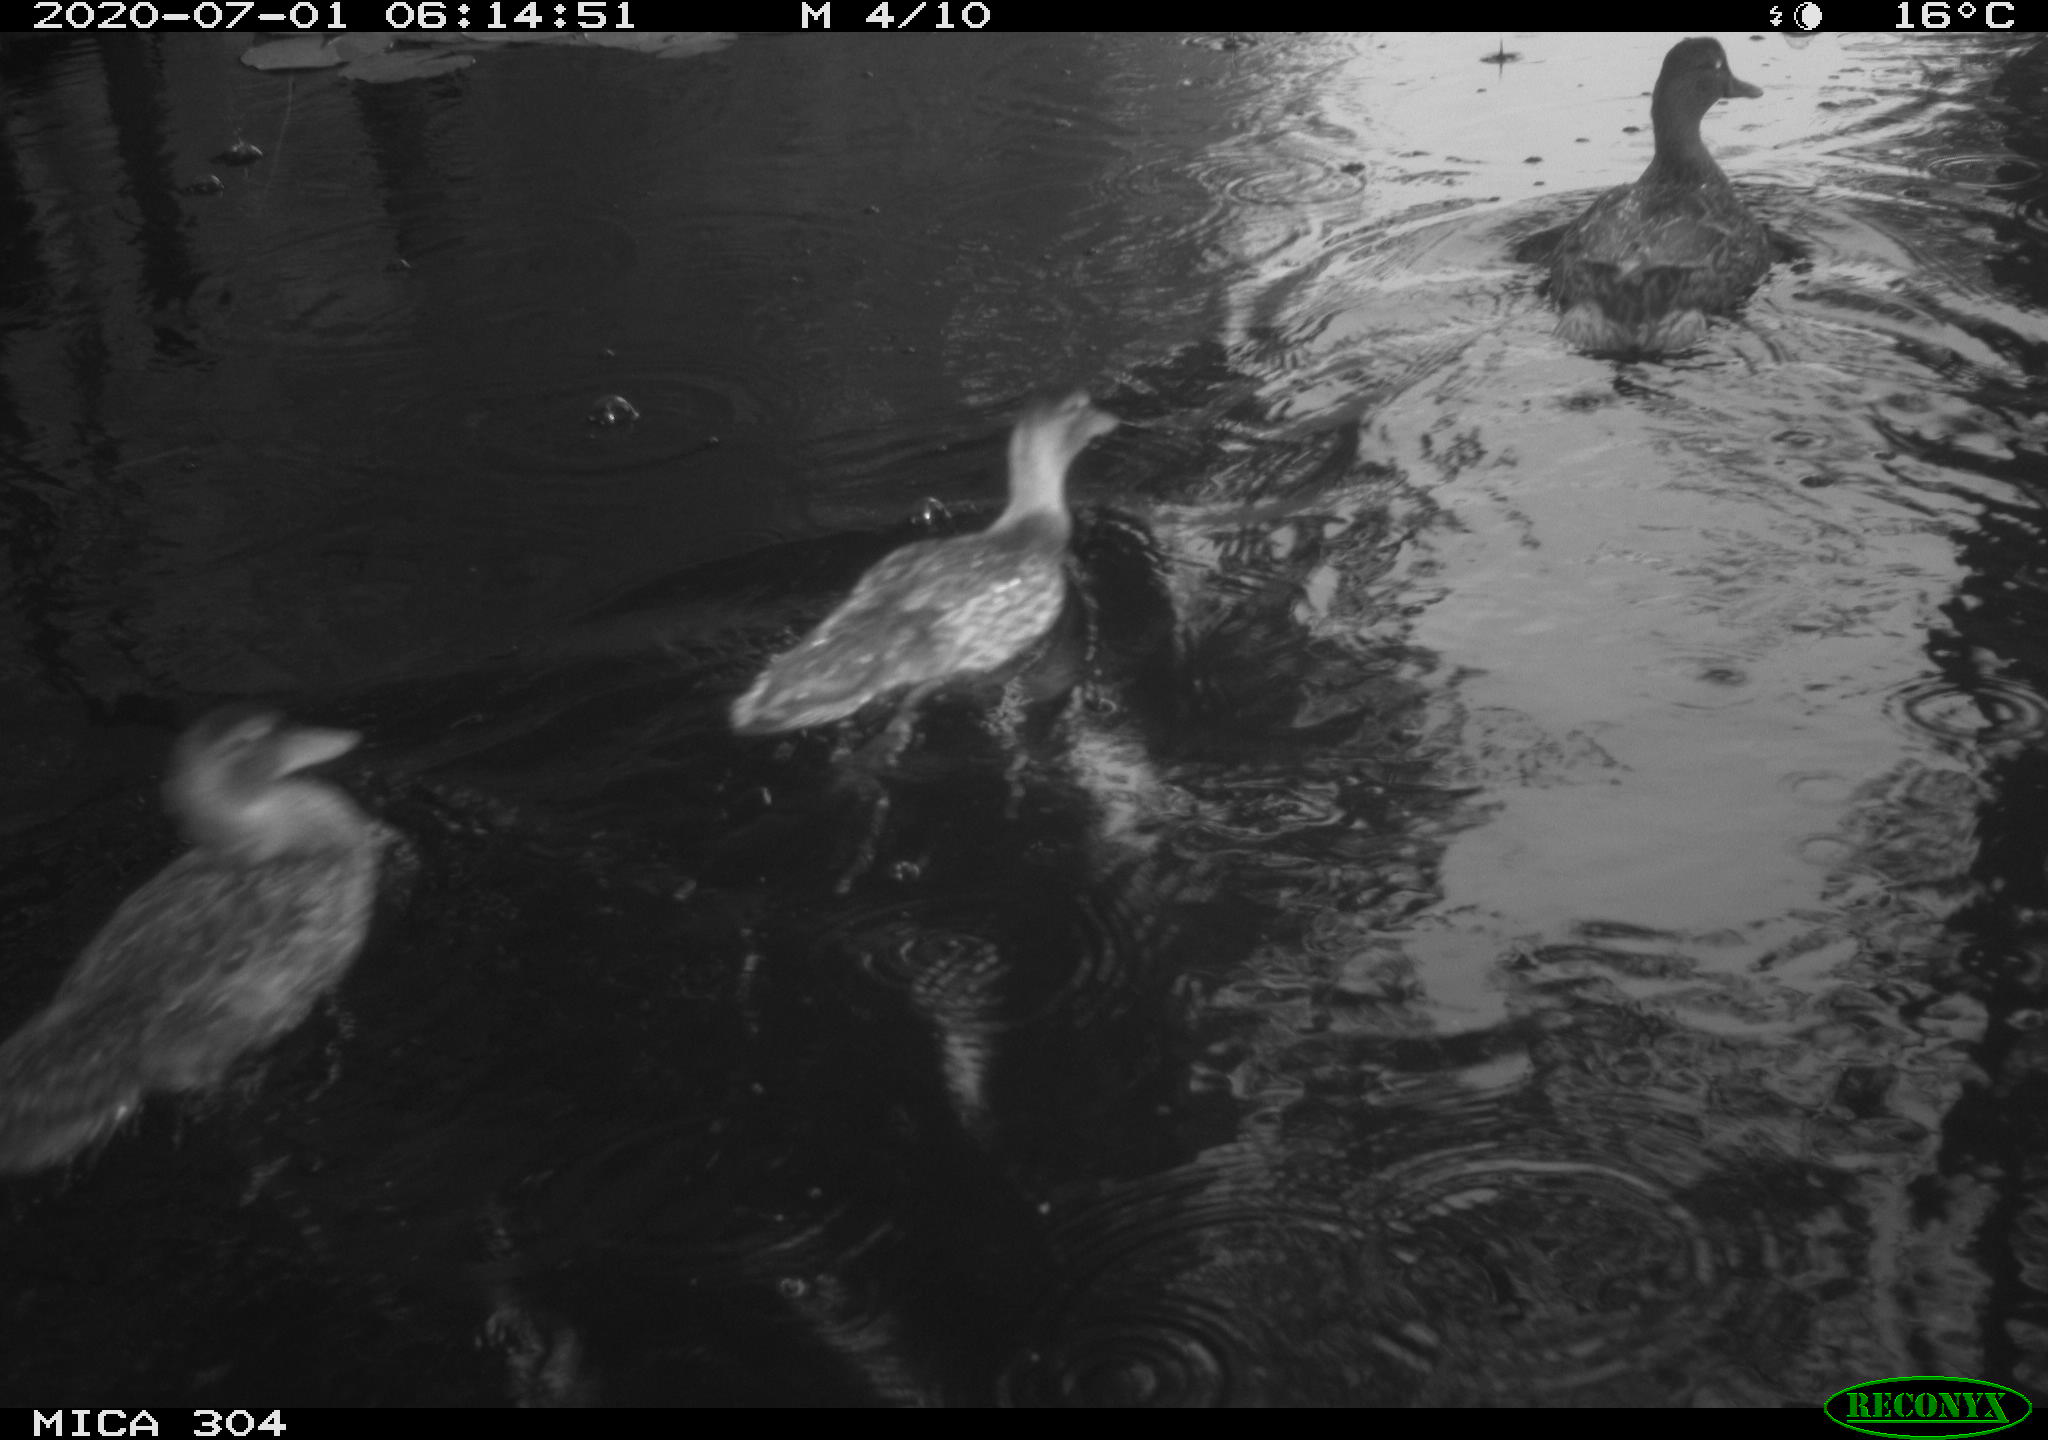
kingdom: Animalia
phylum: Chordata
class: Aves
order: Anseriformes
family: Anatidae
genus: Anas
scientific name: Anas platyrhynchos
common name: Mallard
